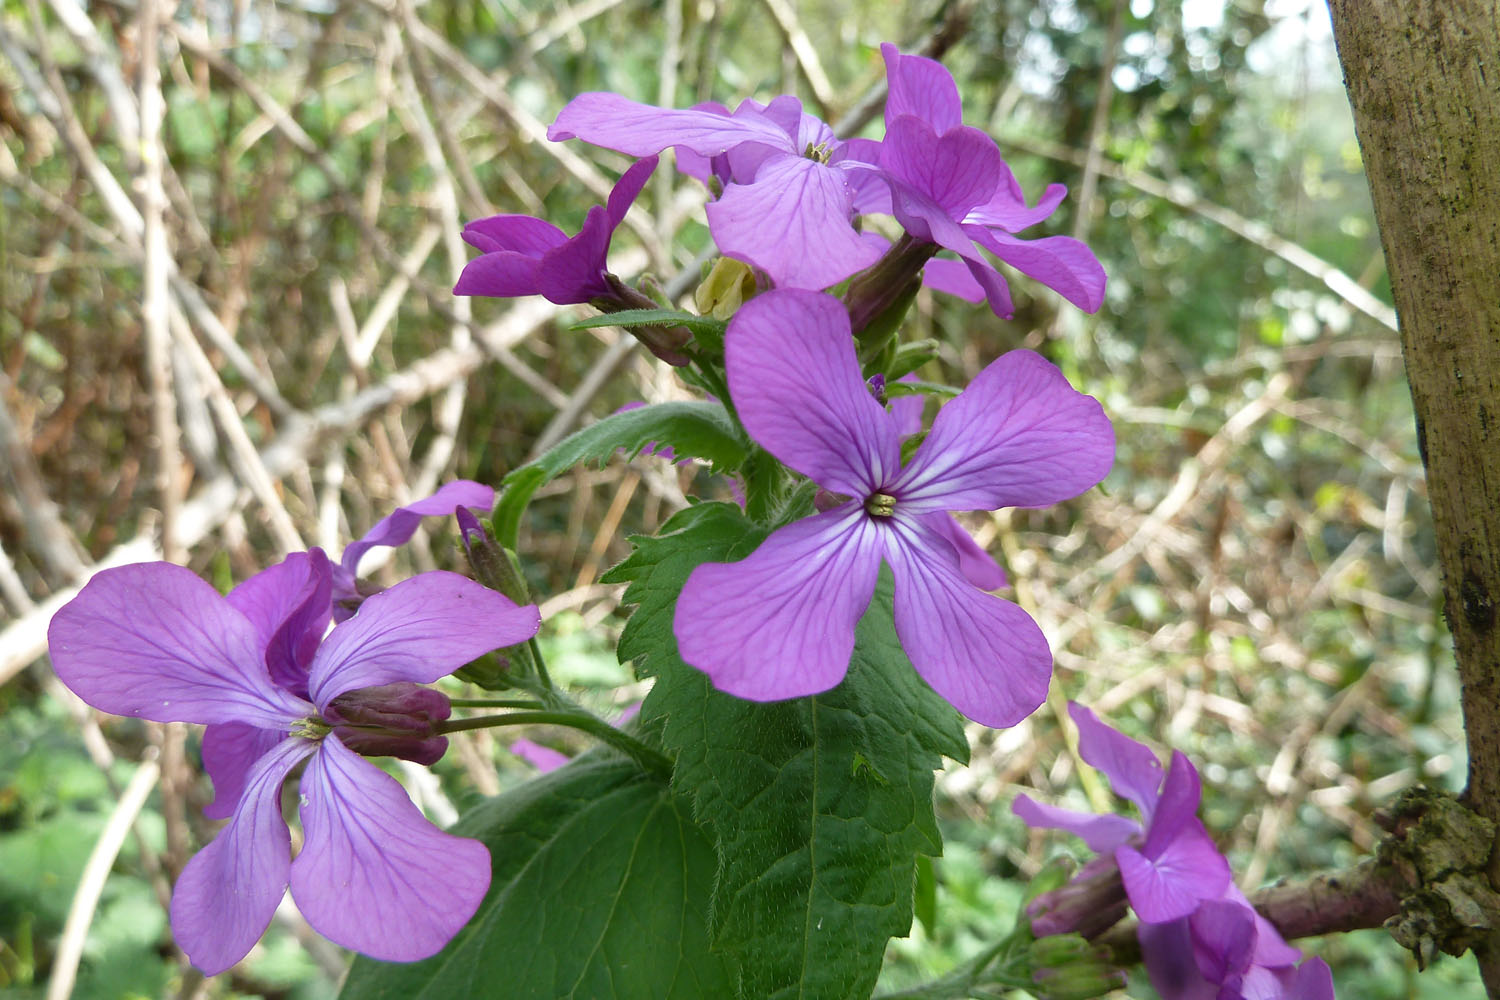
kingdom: Plantae
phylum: Tracheophyta
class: Magnoliopsida
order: Brassicales
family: Brassicaceae
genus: Lunaria
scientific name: Lunaria annua
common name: Honesty
